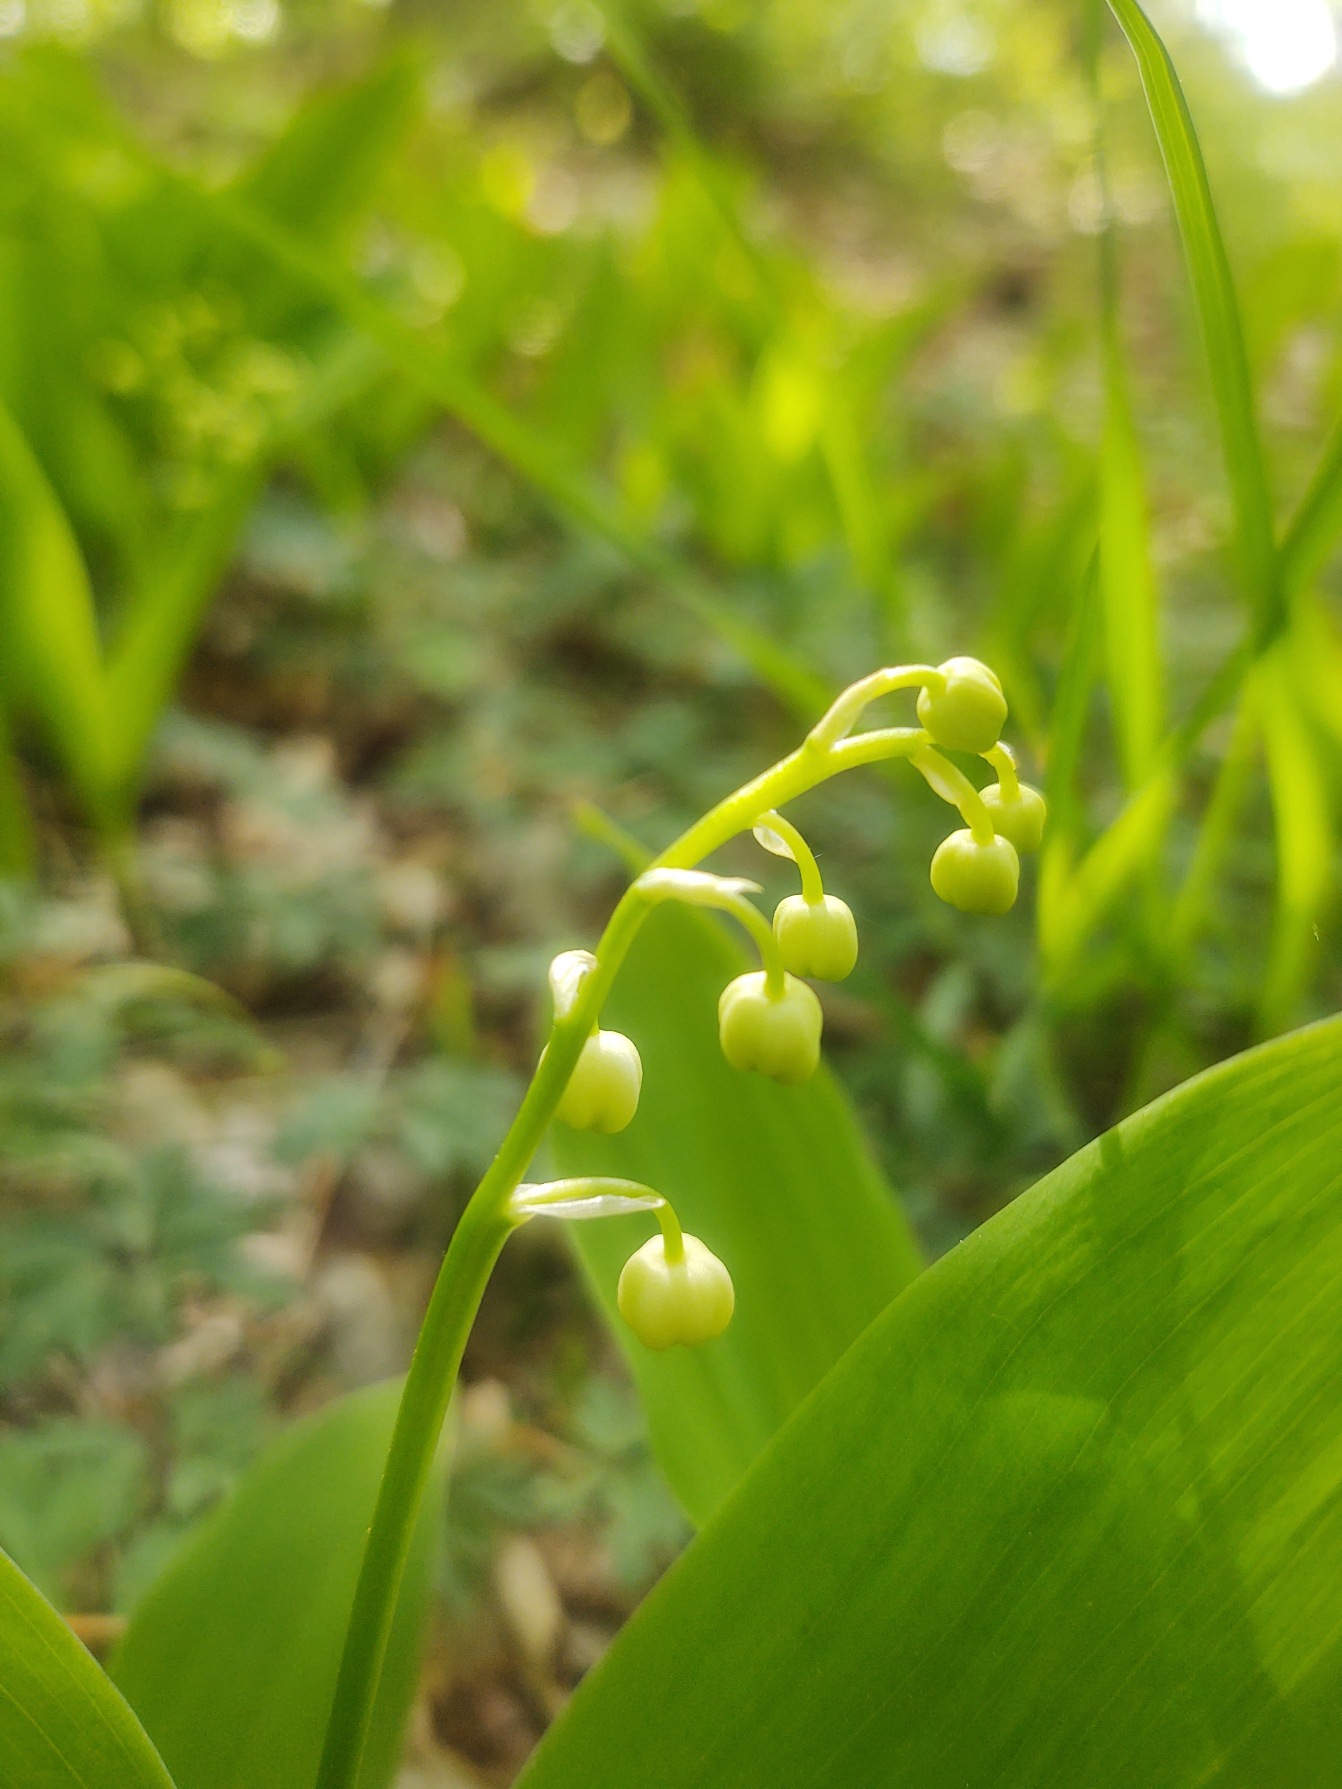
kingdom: Plantae
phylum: Tracheophyta
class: Liliopsida
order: Asparagales
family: Asparagaceae
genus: Convallaria
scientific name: Convallaria majalis
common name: Liljekonval
